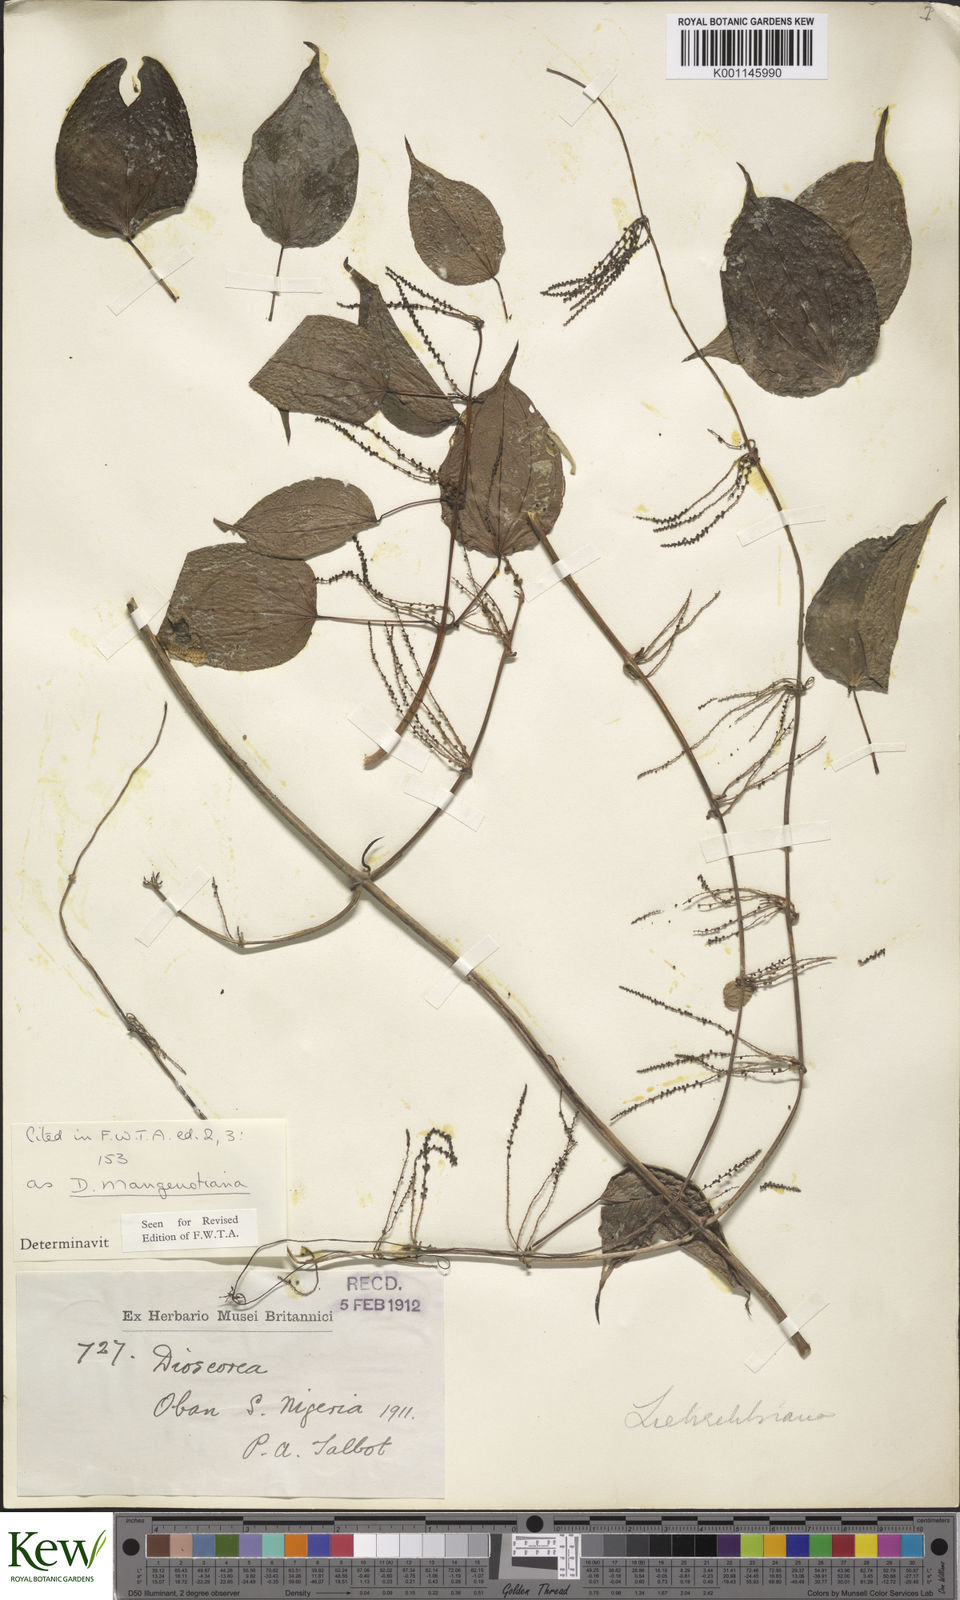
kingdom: Plantae
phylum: Tracheophyta
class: Liliopsida
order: Dioscoreales
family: Dioscoreaceae
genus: Dioscorea
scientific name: Dioscorea
